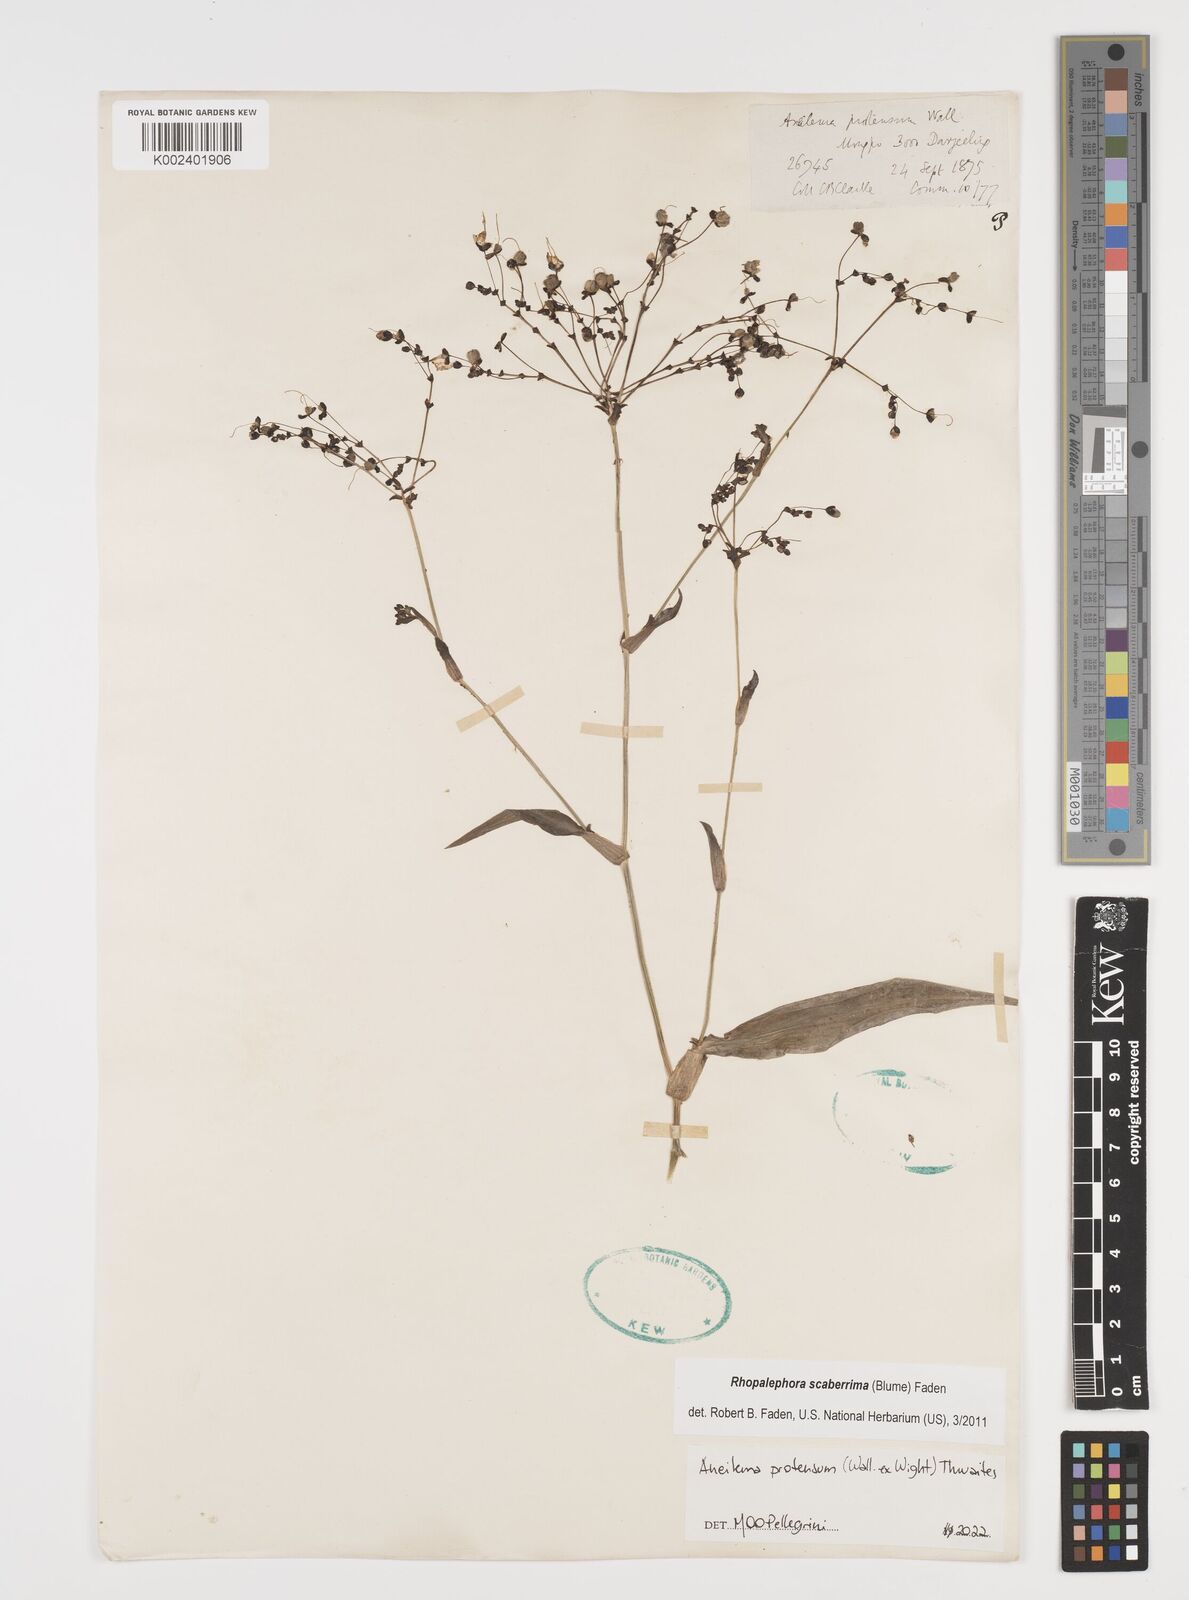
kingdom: Plantae
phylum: Tracheophyta
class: Liliopsida
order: Commelinales
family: Commelinaceae
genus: Rhopalephora
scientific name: Rhopalephora
